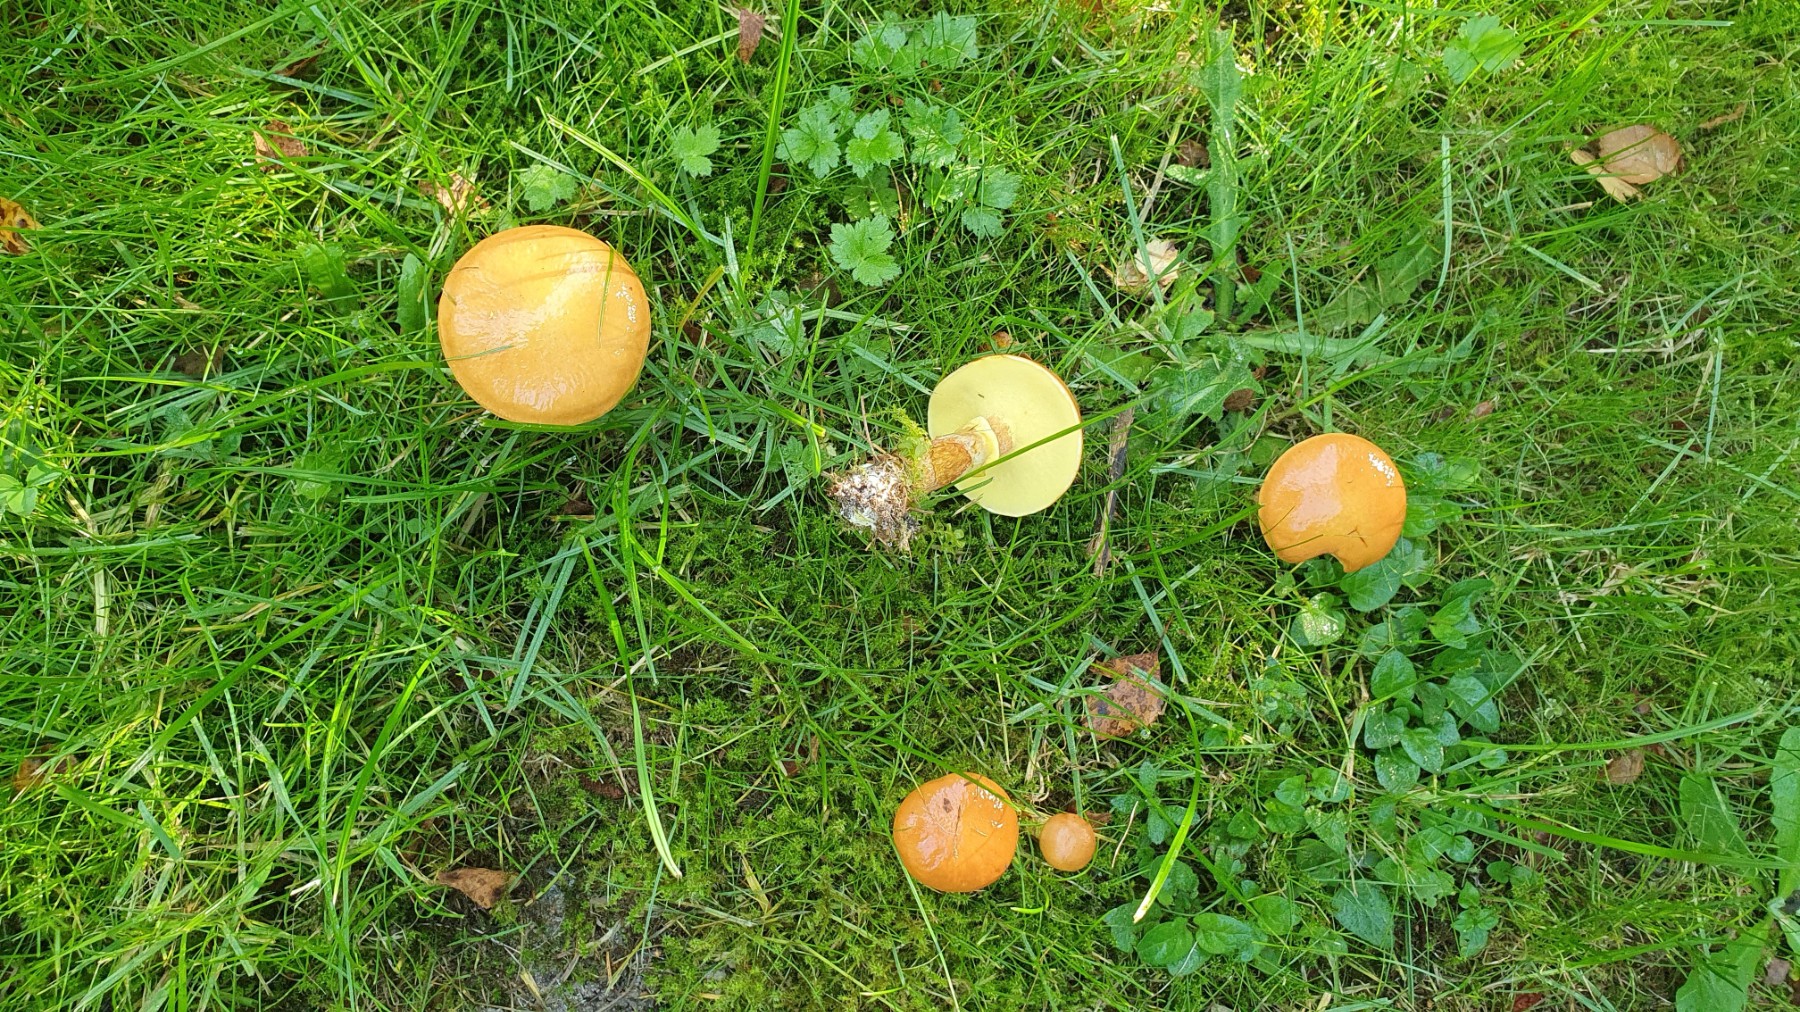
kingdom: Fungi
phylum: Basidiomycota
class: Agaricomycetes
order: Boletales
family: Suillaceae
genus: Suillus
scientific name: Suillus grevillei
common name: lærke-slimrørhat
